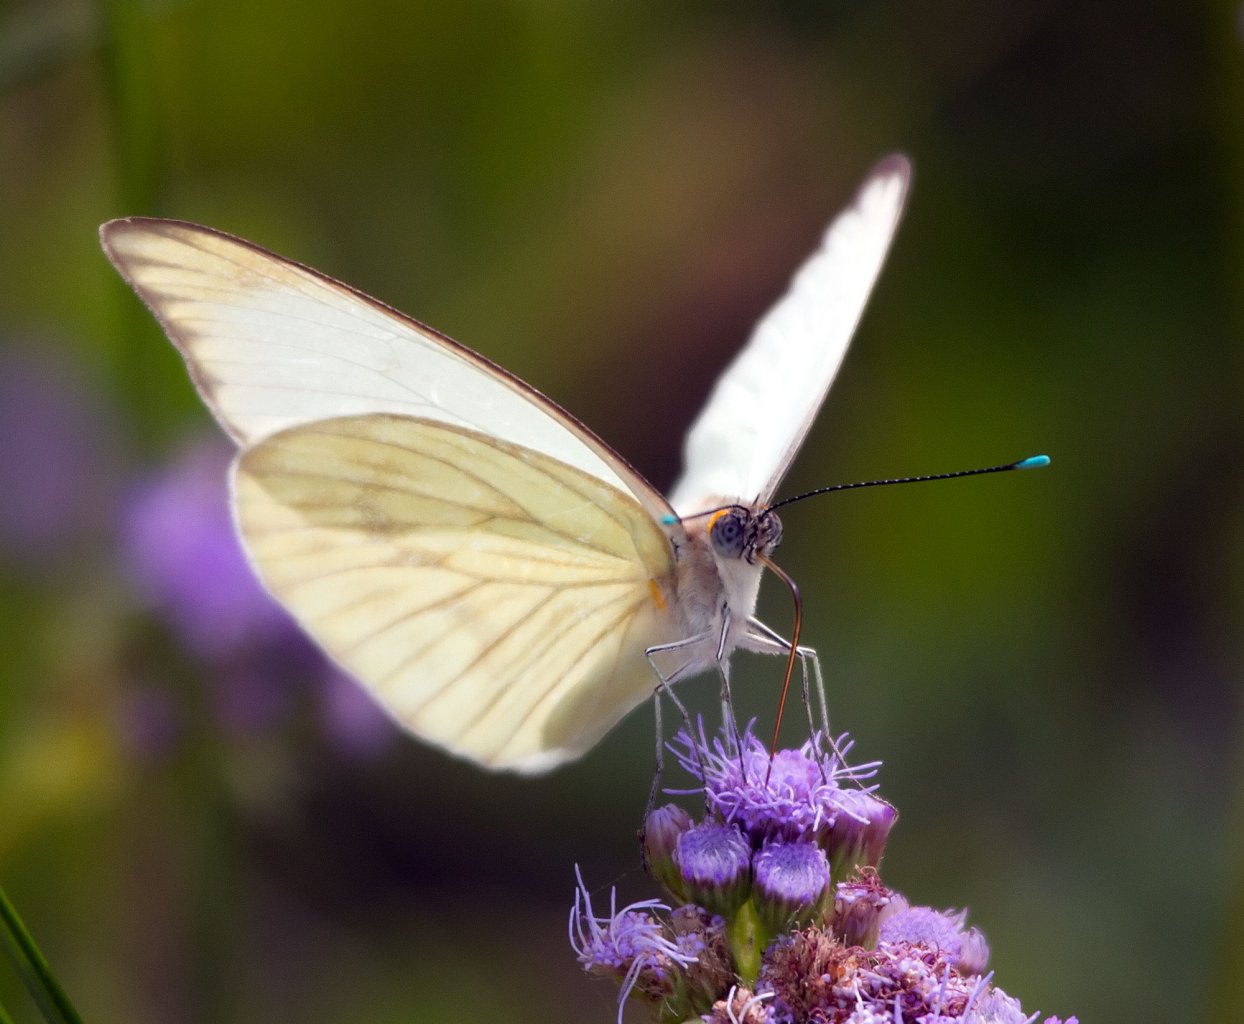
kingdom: Animalia
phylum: Arthropoda
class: Insecta
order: Lepidoptera
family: Pieridae
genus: Ascia
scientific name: Ascia monuste
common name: Great Southern White
